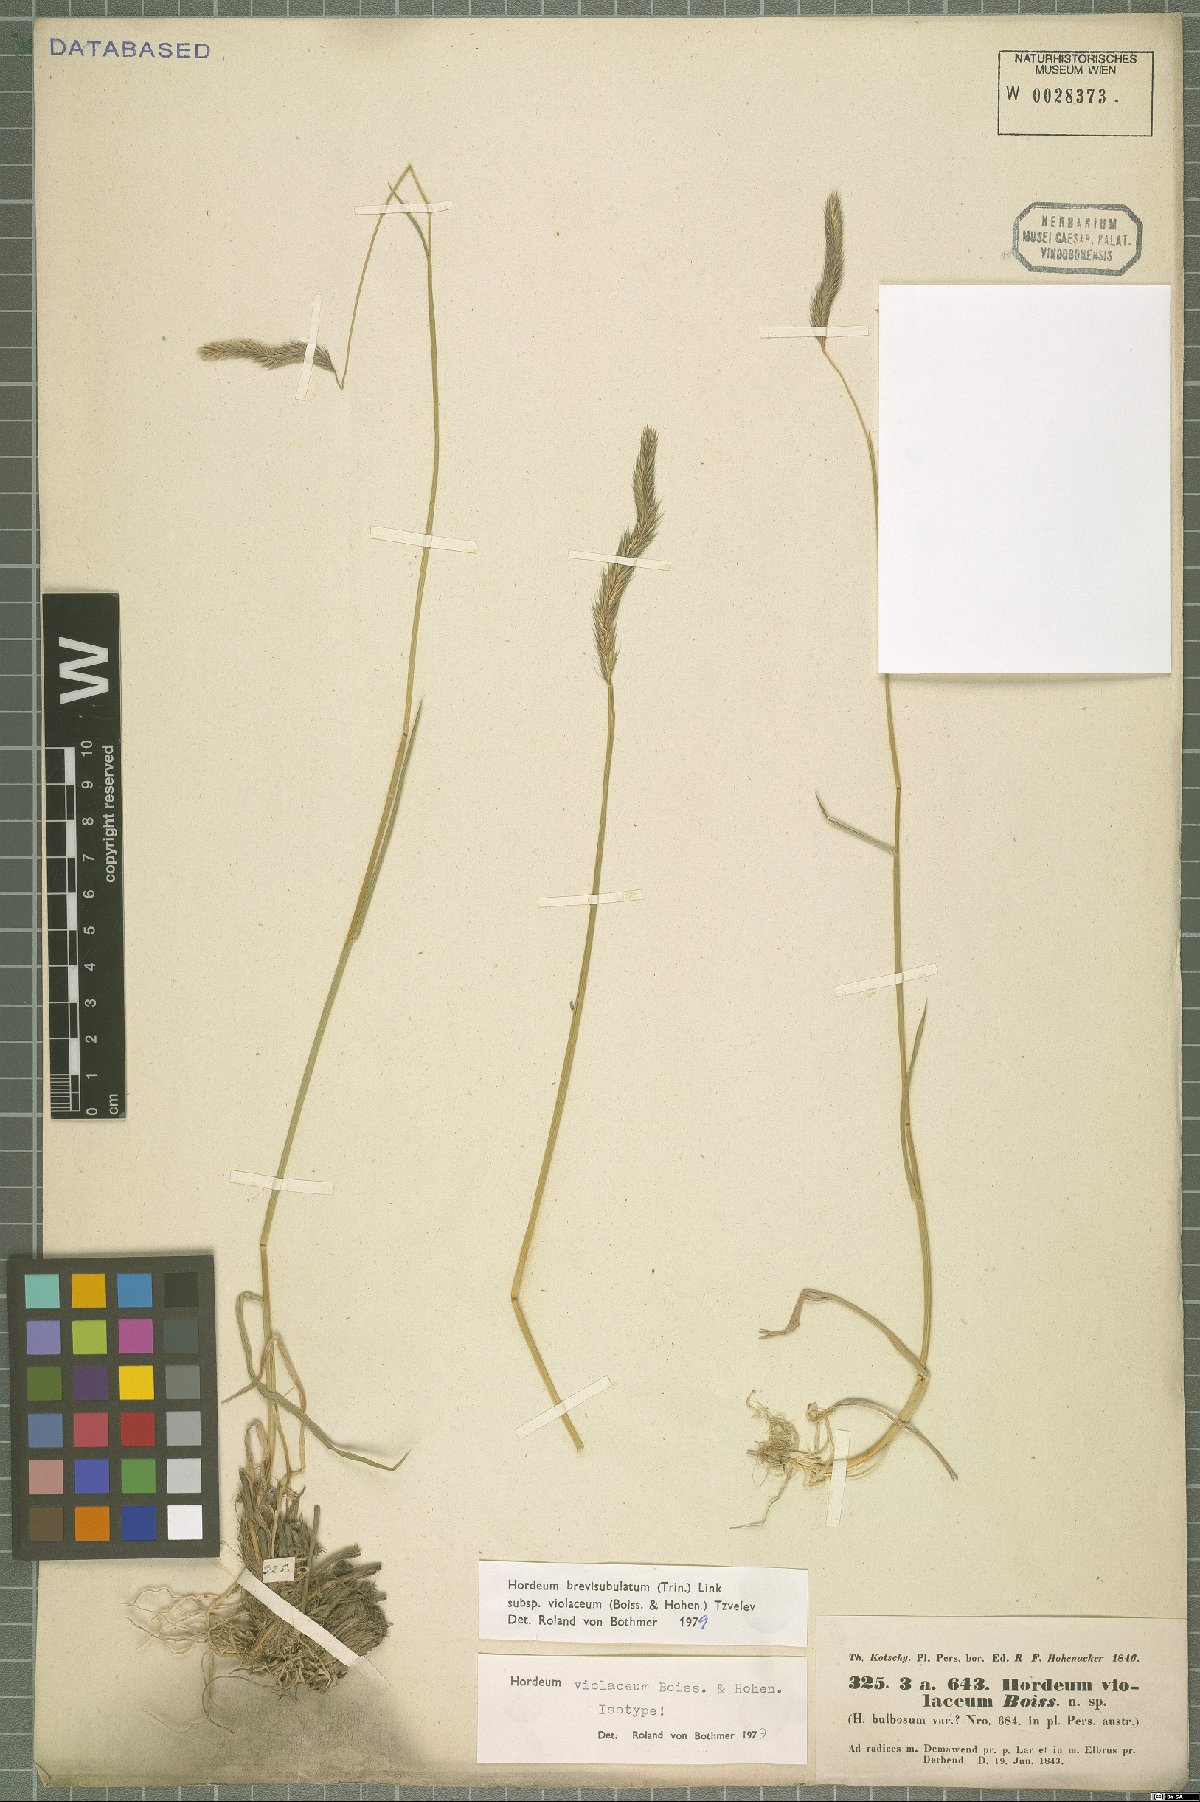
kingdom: Plantae
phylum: Tracheophyta
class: Liliopsida
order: Poales
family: Poaceae
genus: Hordeum
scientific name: Hordeum brevisubulatum
